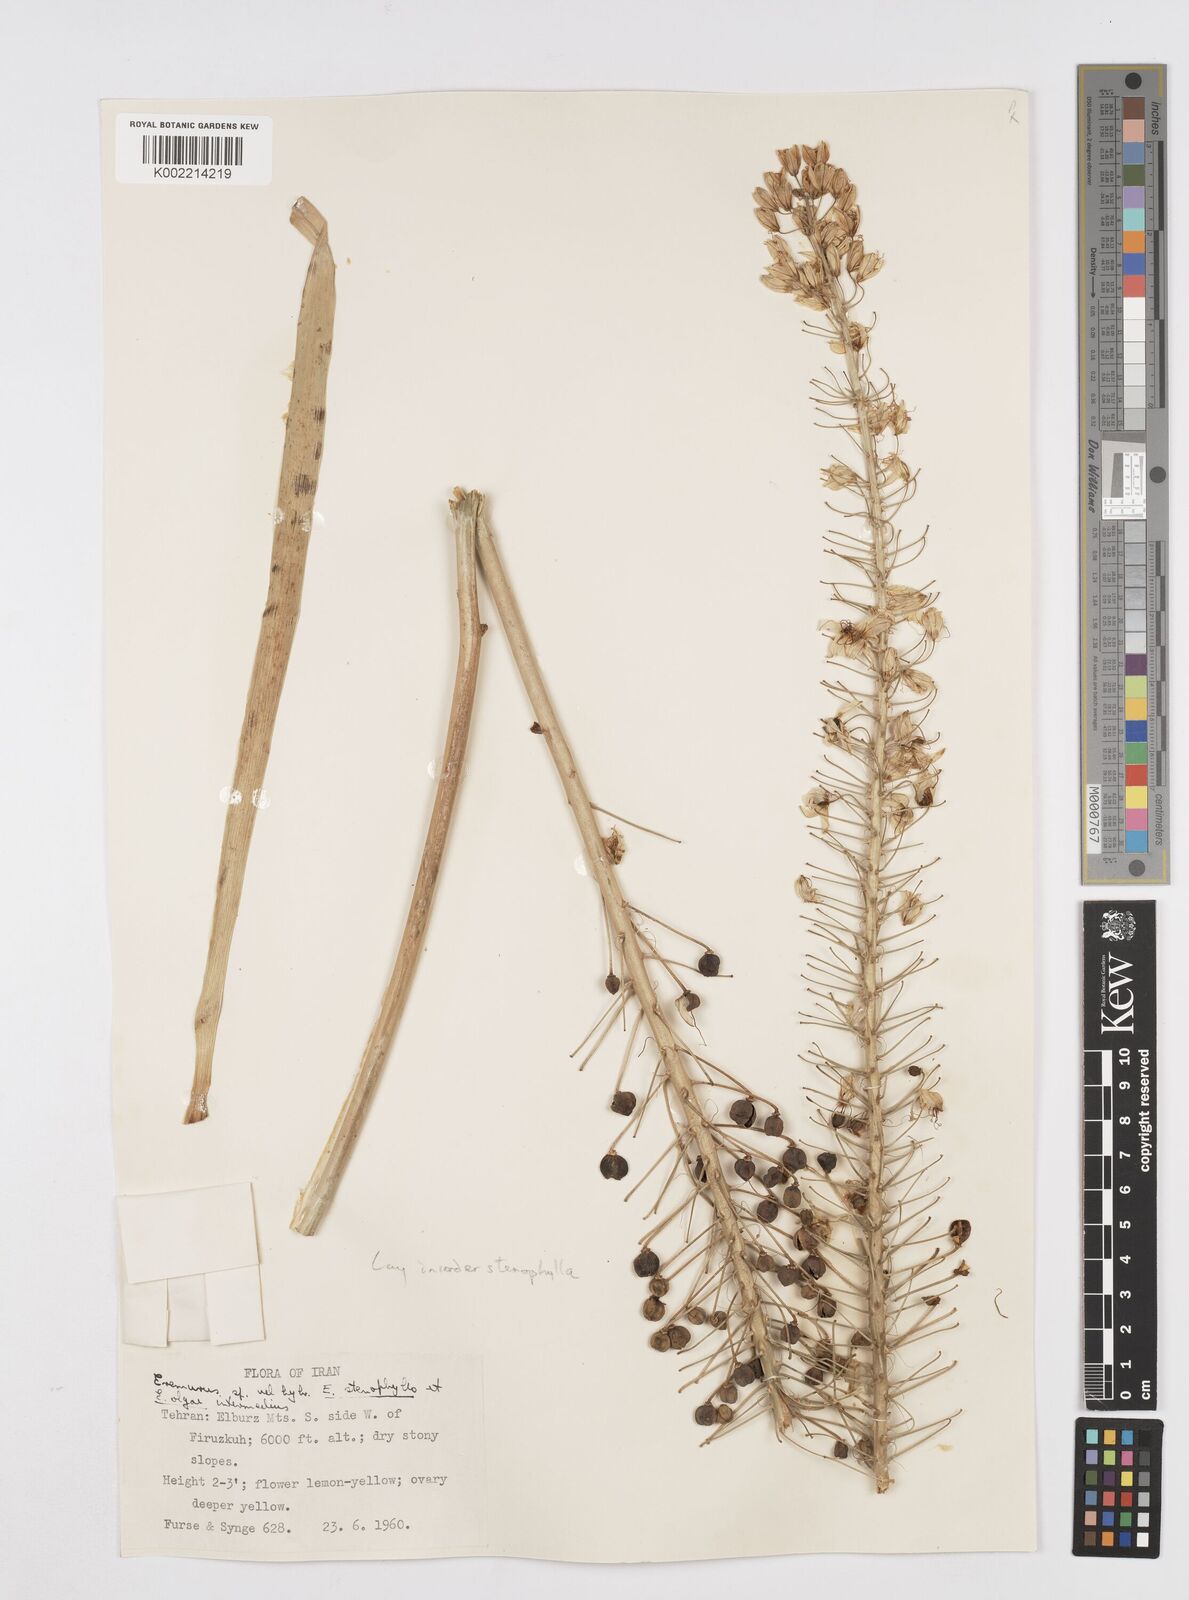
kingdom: Plantae
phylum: Tracheophyta
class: Liliopsida
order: Asparagales
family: Asphodelaceae
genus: Eremurus
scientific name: Eremurus stenophyllus
